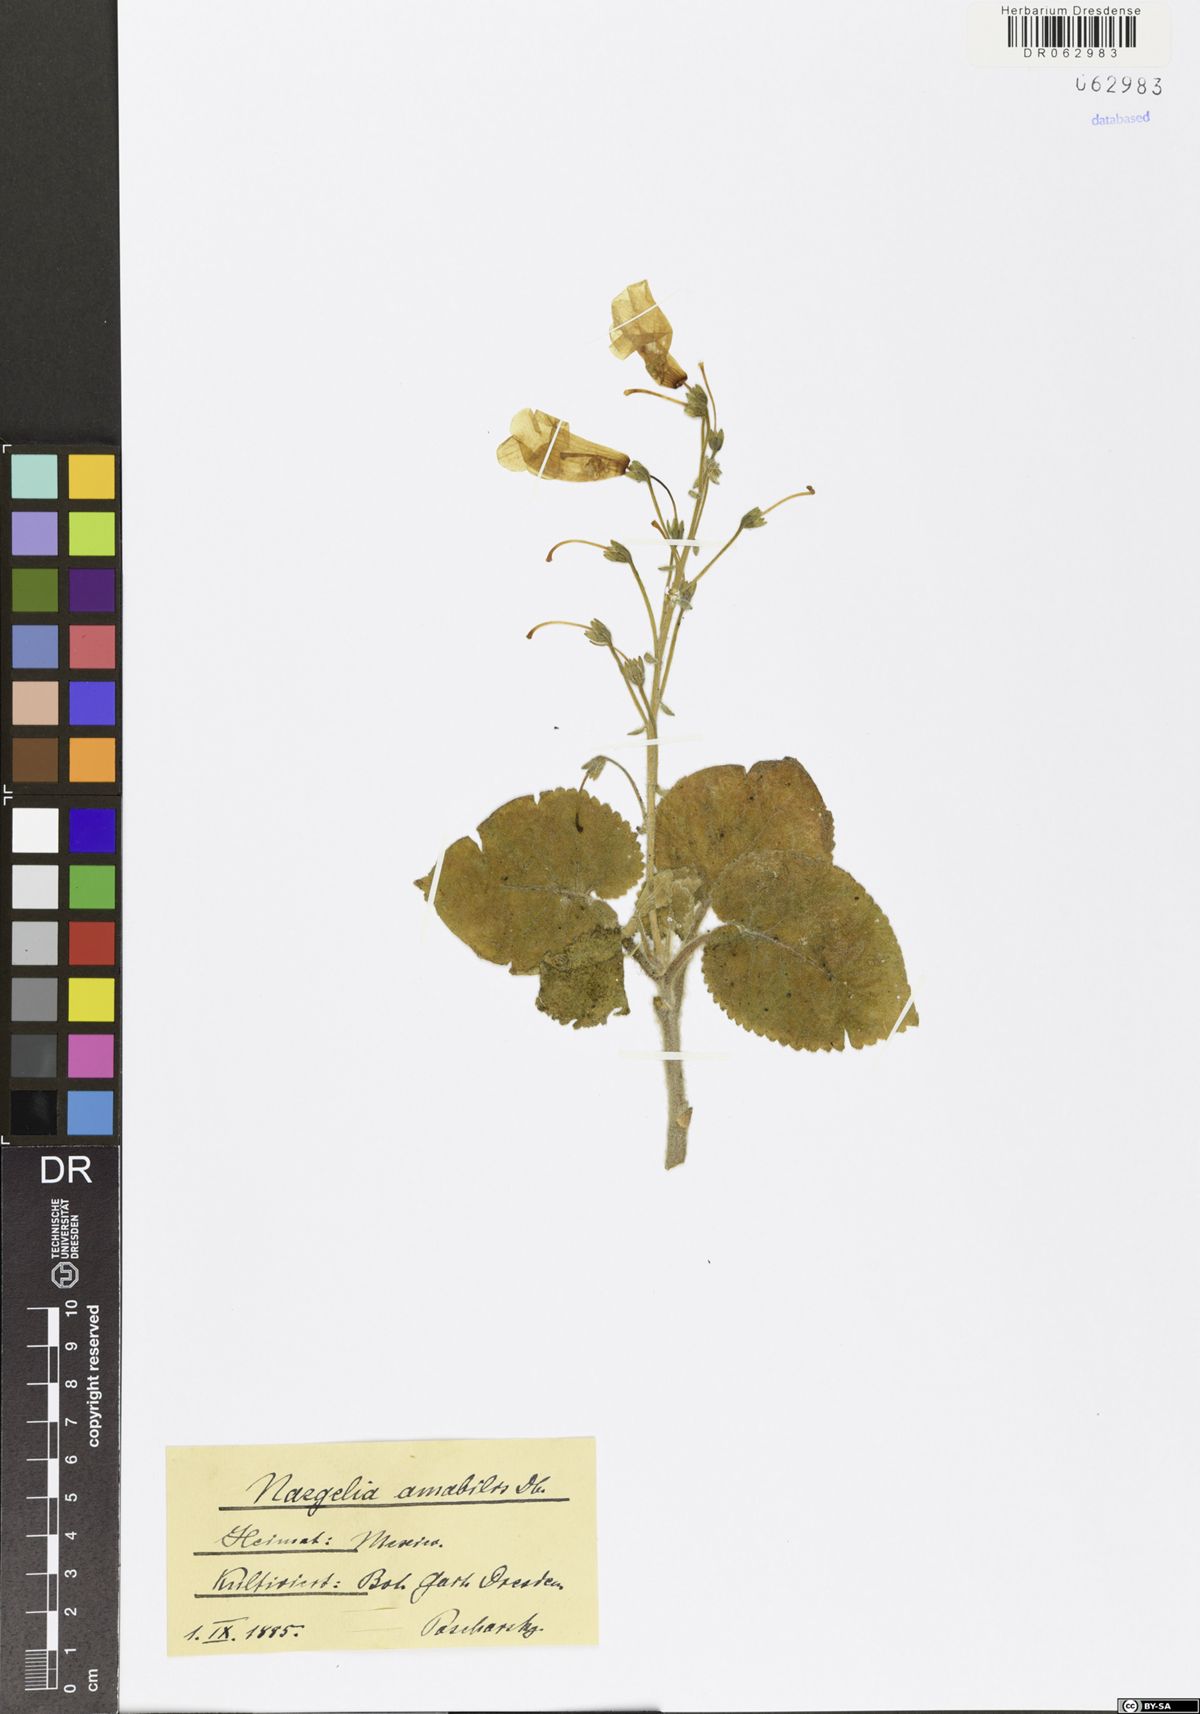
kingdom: Plantae
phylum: Tracheophyta
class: Magnoliopsida
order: Lamiales
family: Gesneriaceae
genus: Smithiantha
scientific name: Smithiantha multiflora
